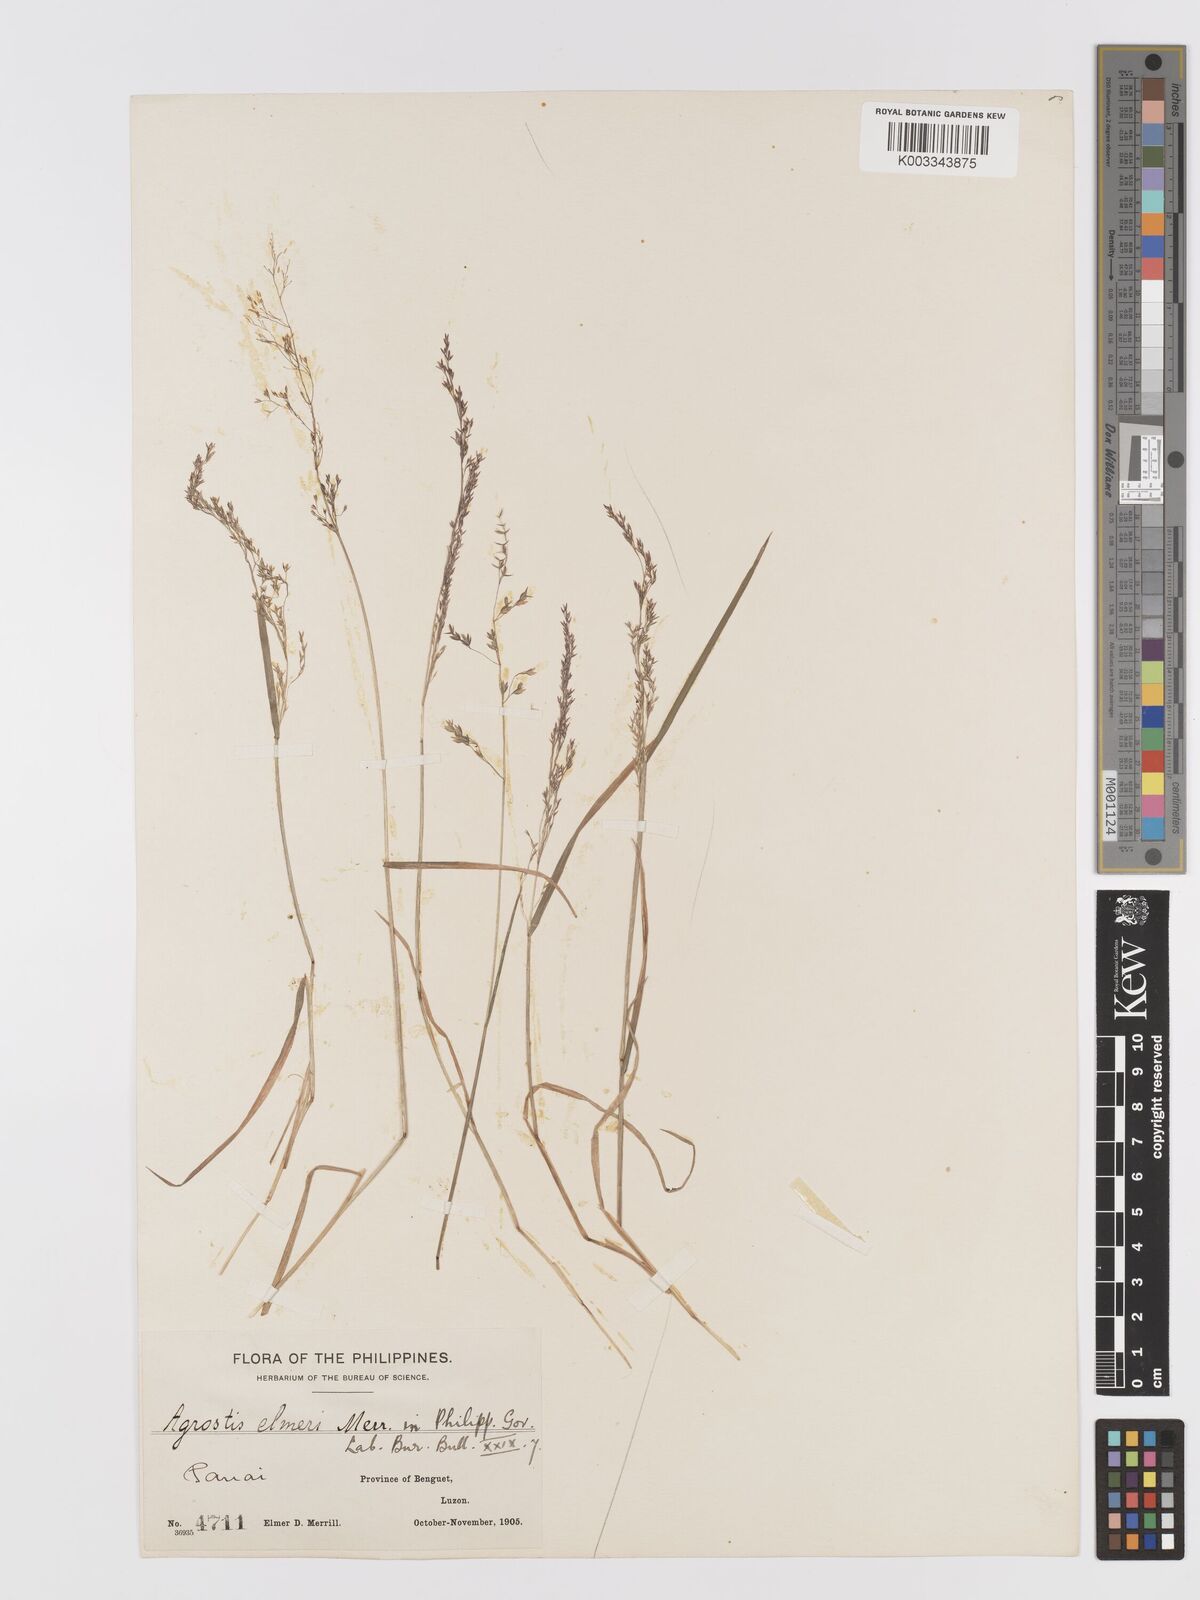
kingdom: Plantae
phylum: Tracheophyta
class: Liliopsida
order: Poales
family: Poaceae
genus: Agrostis
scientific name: Agrostis infirma
